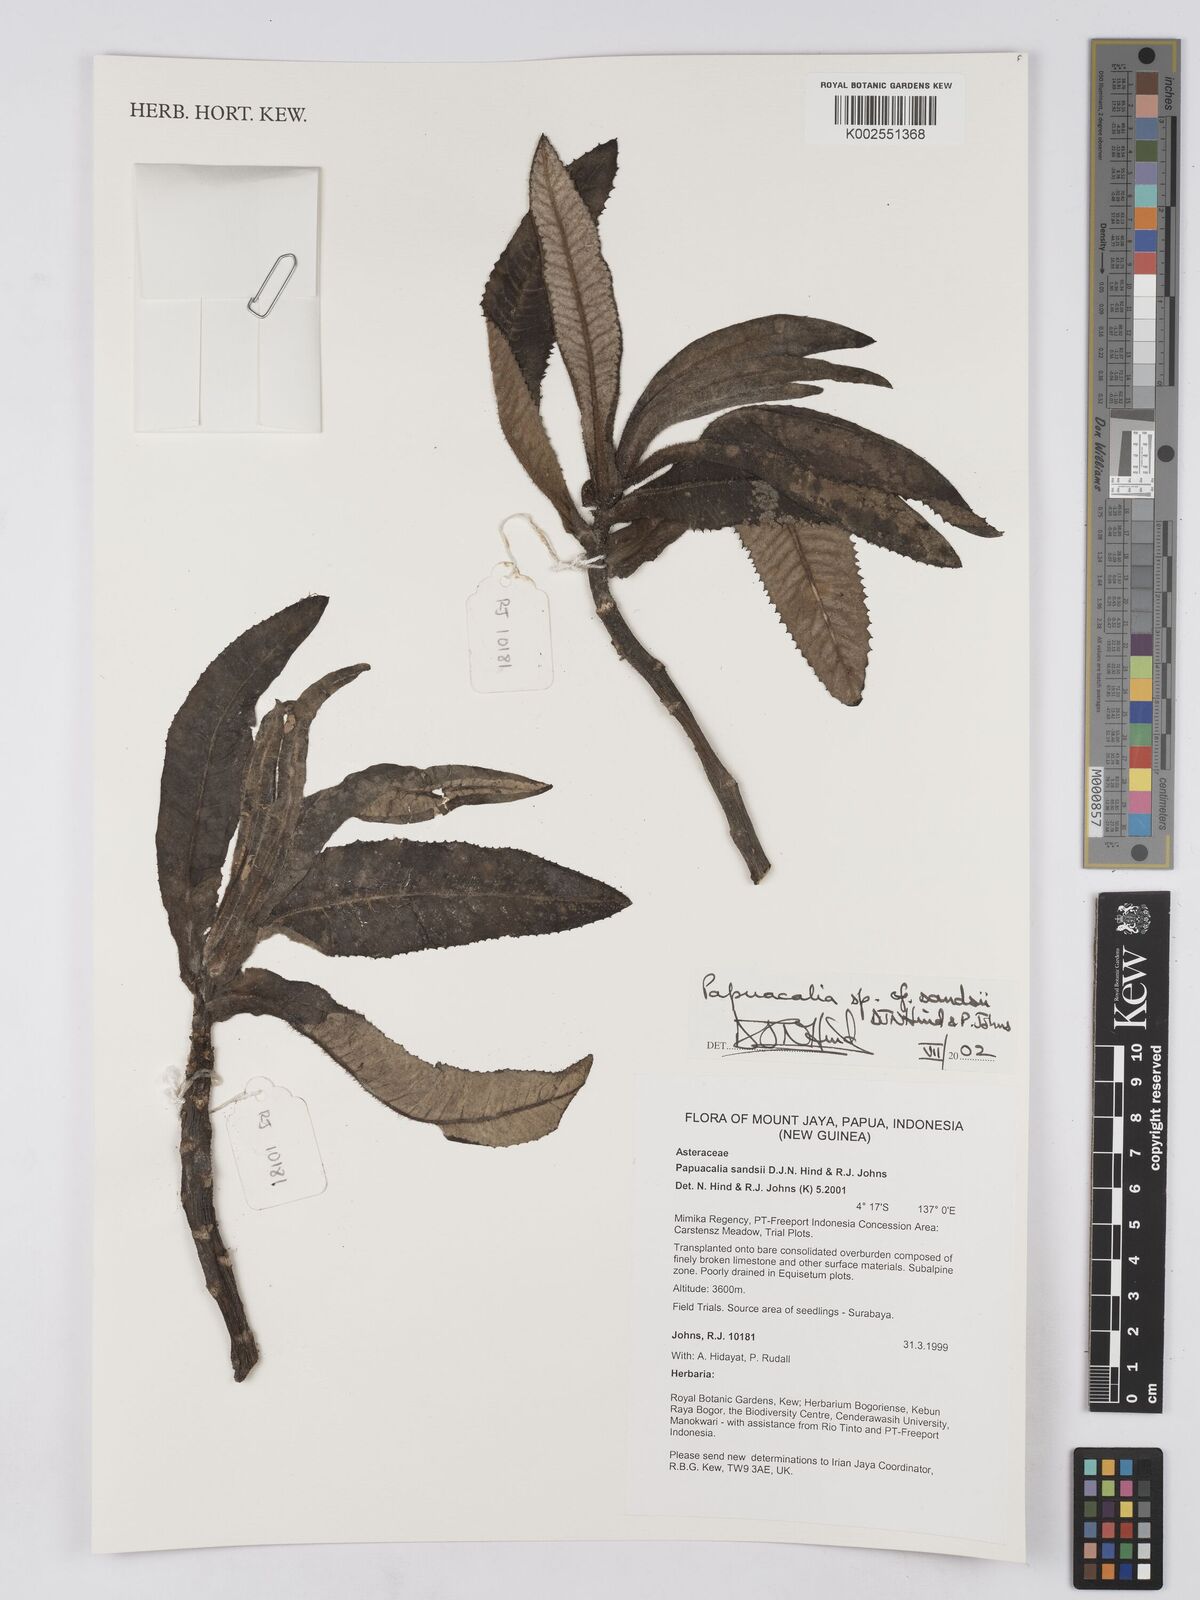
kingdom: Plantae
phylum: Tracheophyta
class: Magnoliopsida
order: Asterales
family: Asteraceae
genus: Papuacalia
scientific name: Papuacalia sandsii
